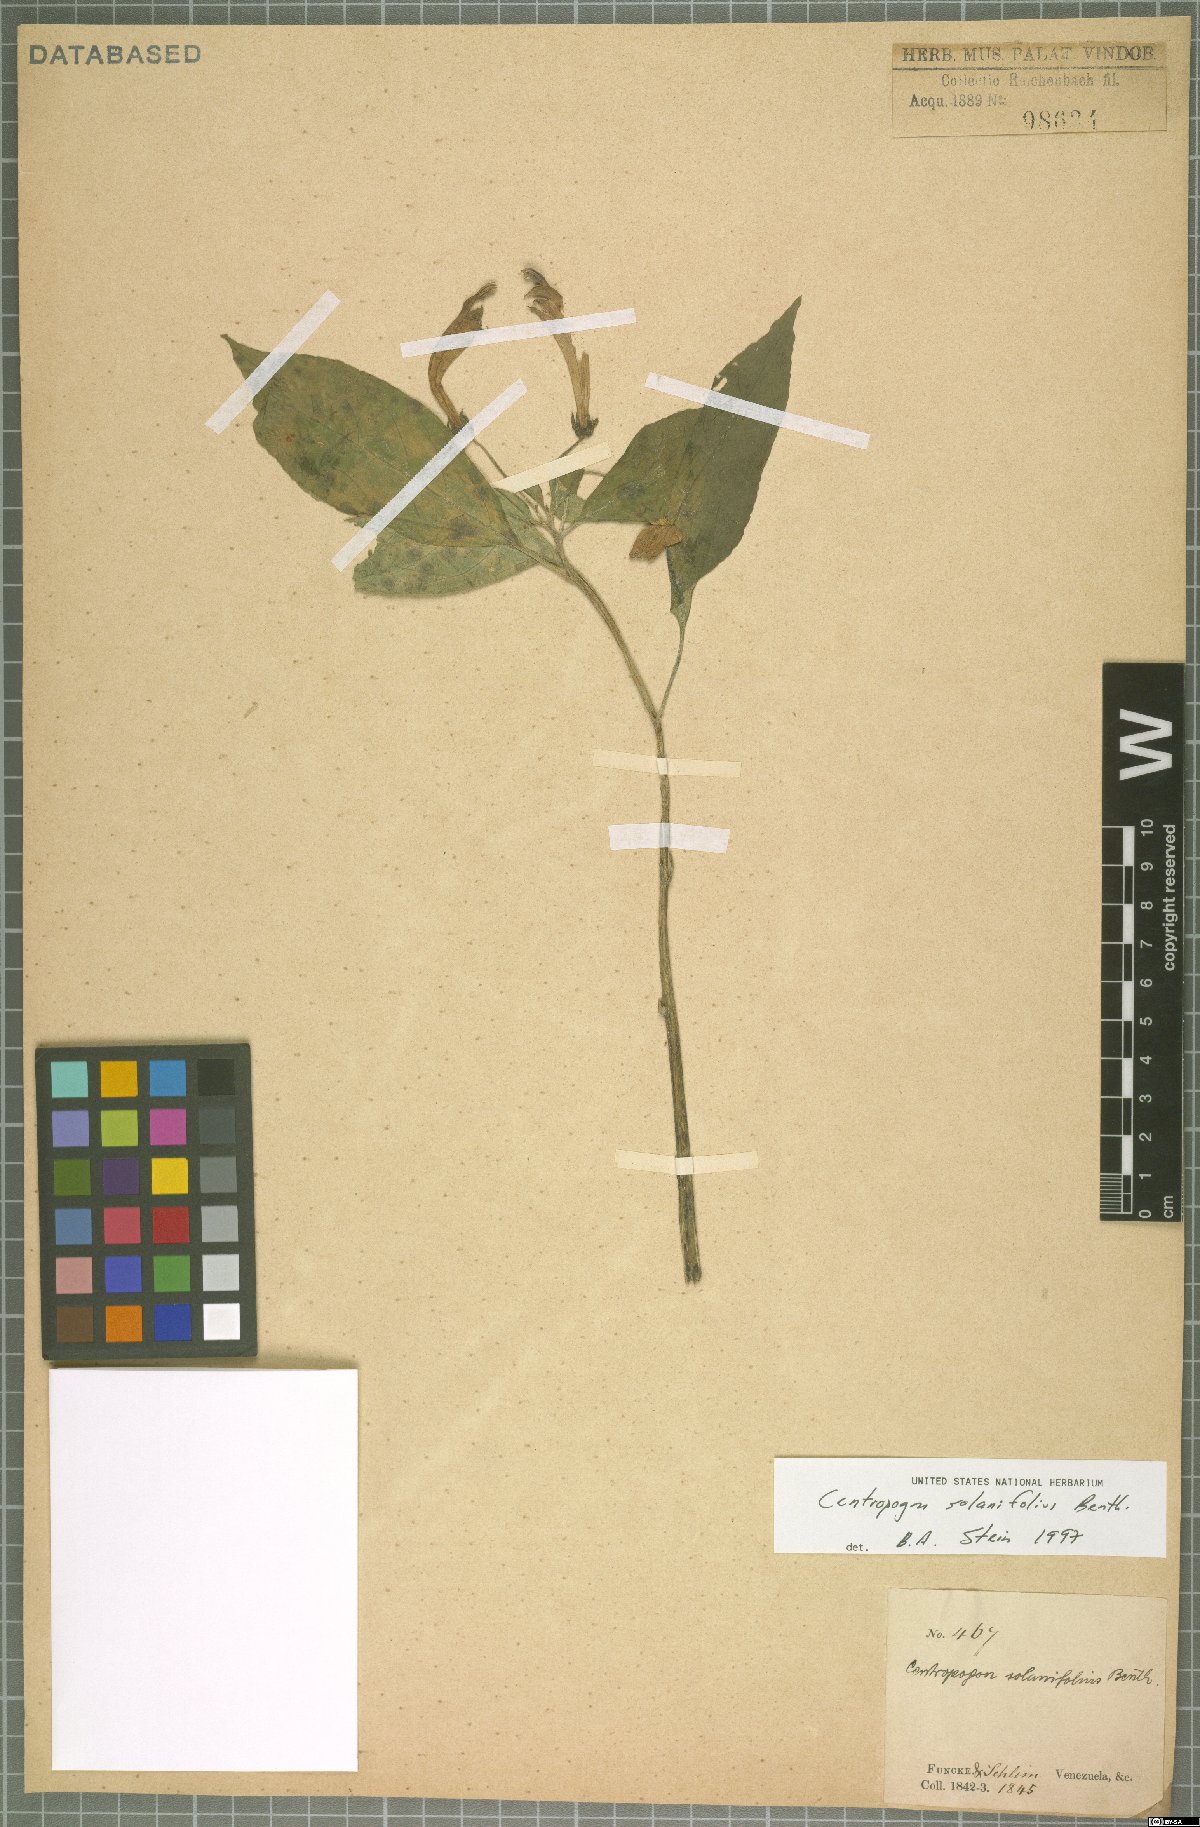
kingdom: Plantae
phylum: Tracheophyta
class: Magnoliopsida
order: Asterales
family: Campanulaceae
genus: Centropogon
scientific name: Centropogon solanifolius
